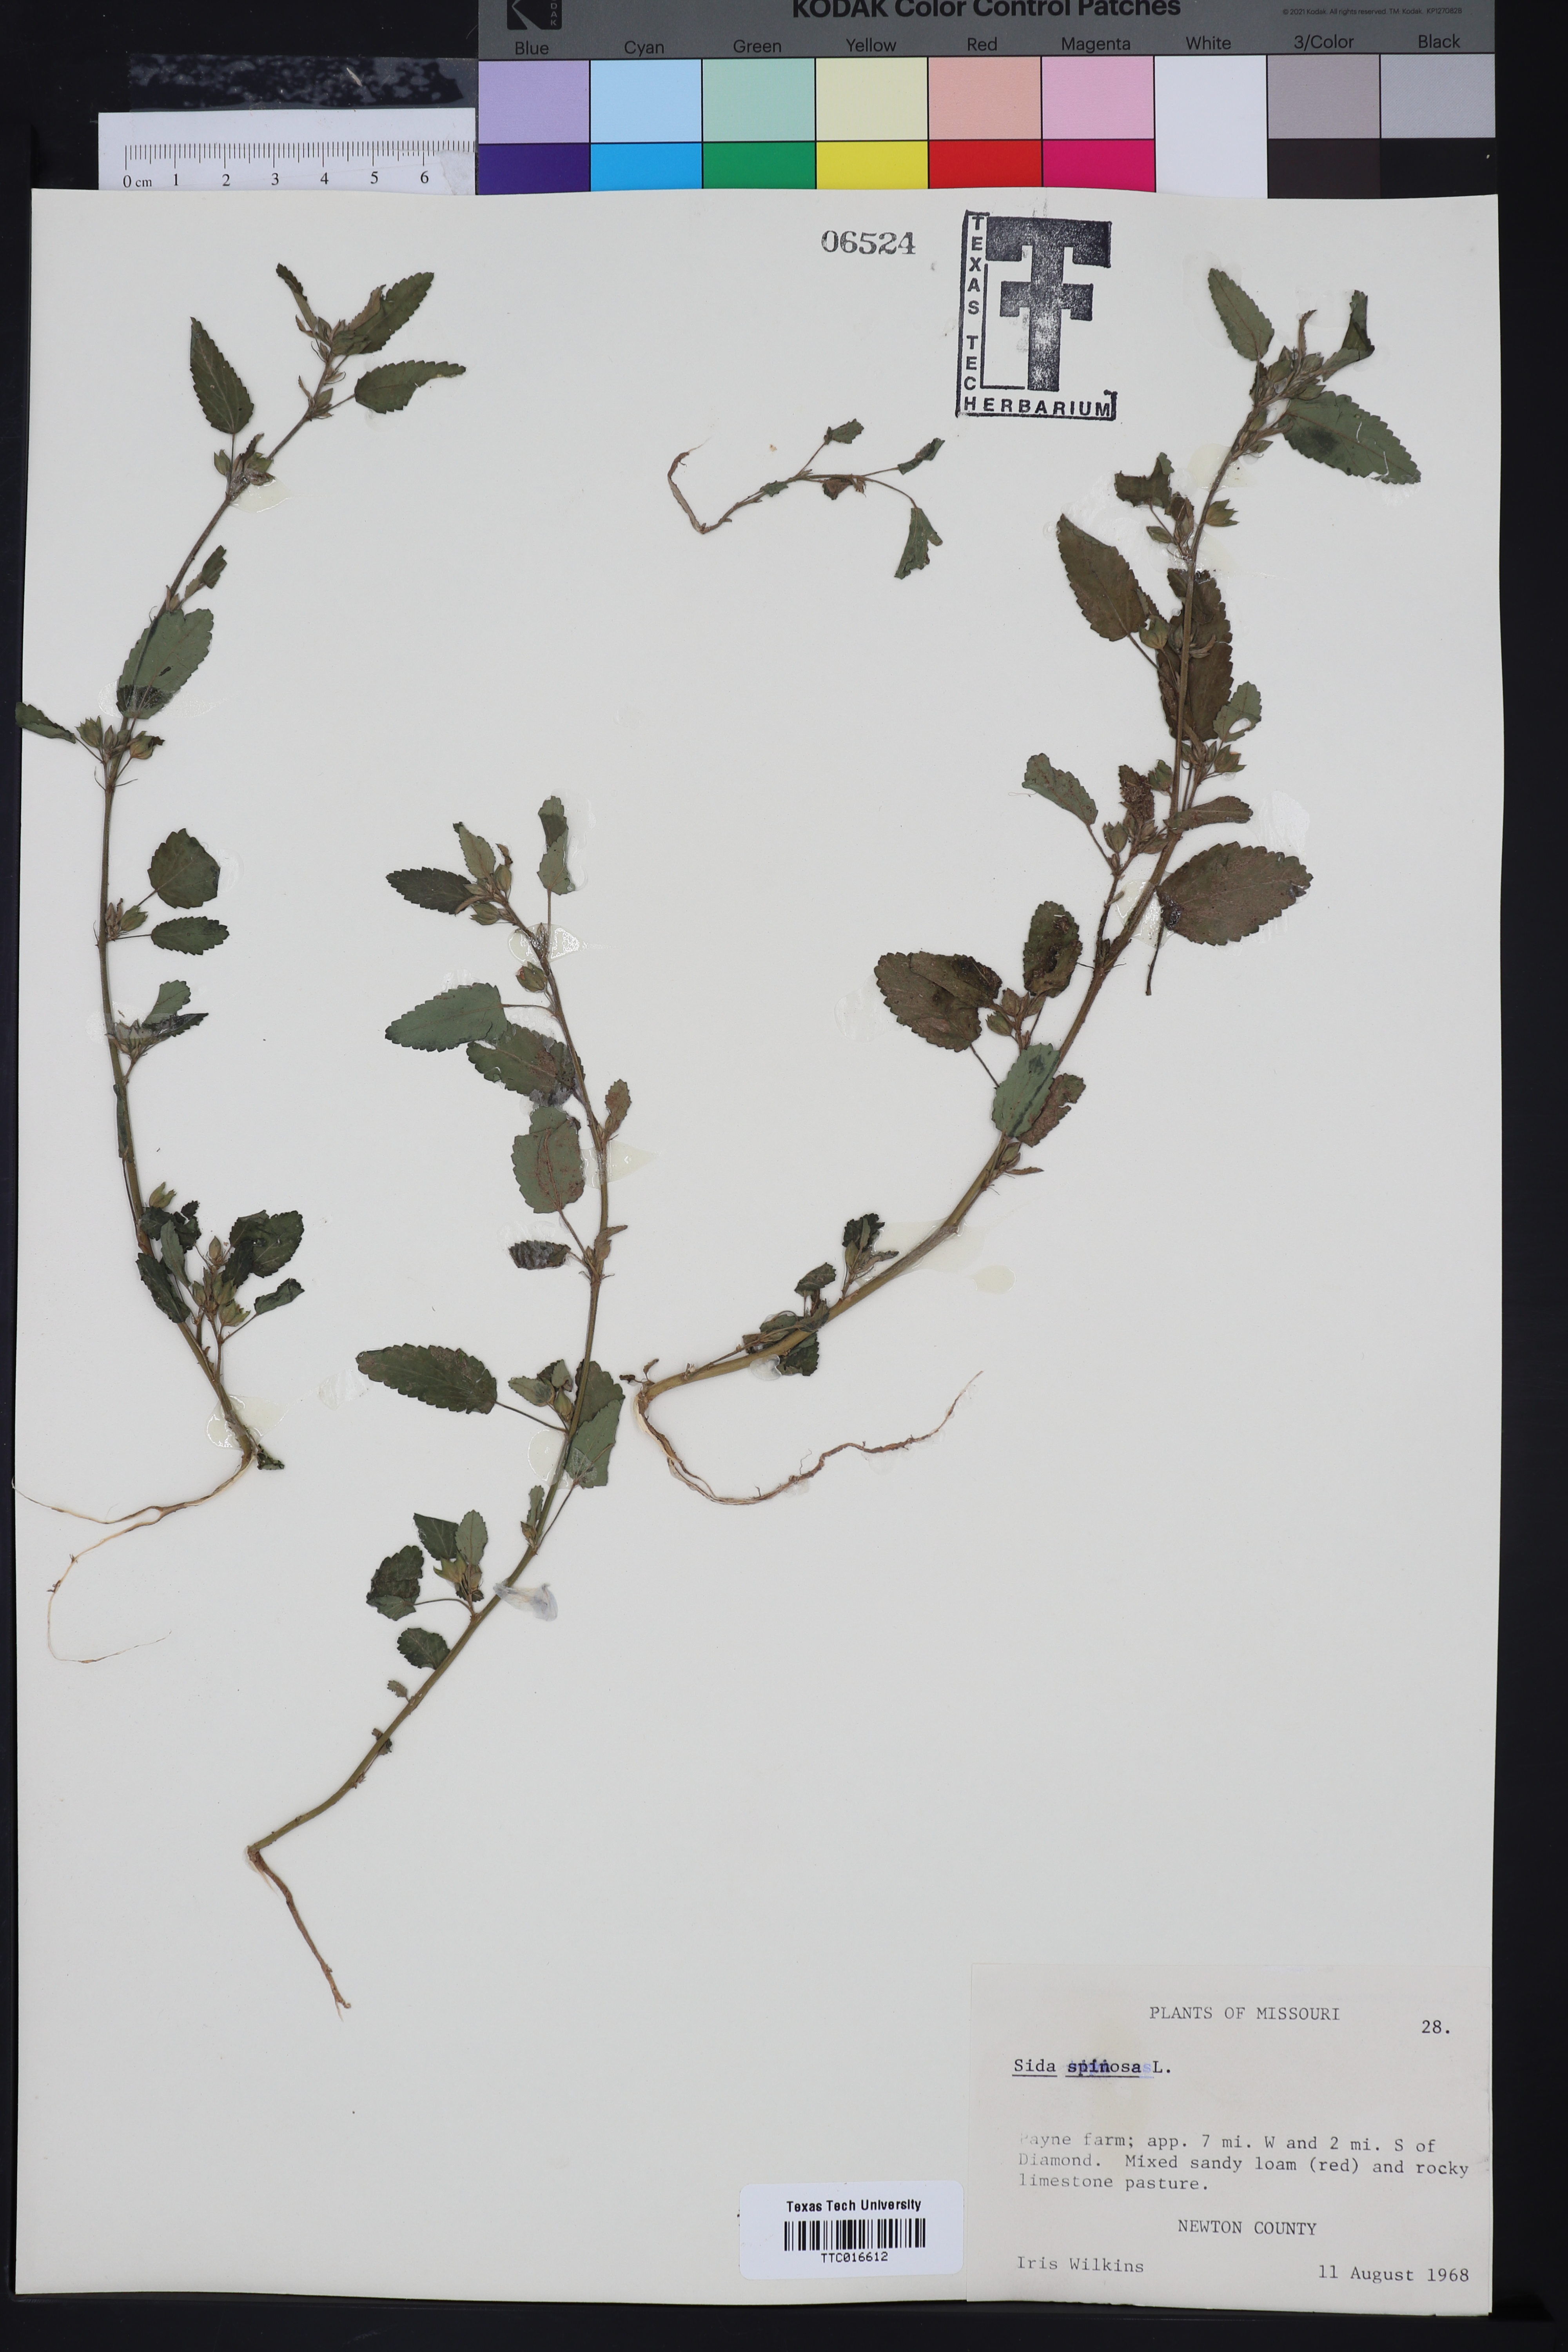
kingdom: Plantae
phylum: Tracheophyta
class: Magnoliopsida
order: Malvales
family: Malvaceae
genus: Sida
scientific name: Sida spinosa
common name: Prickly fanpetals
